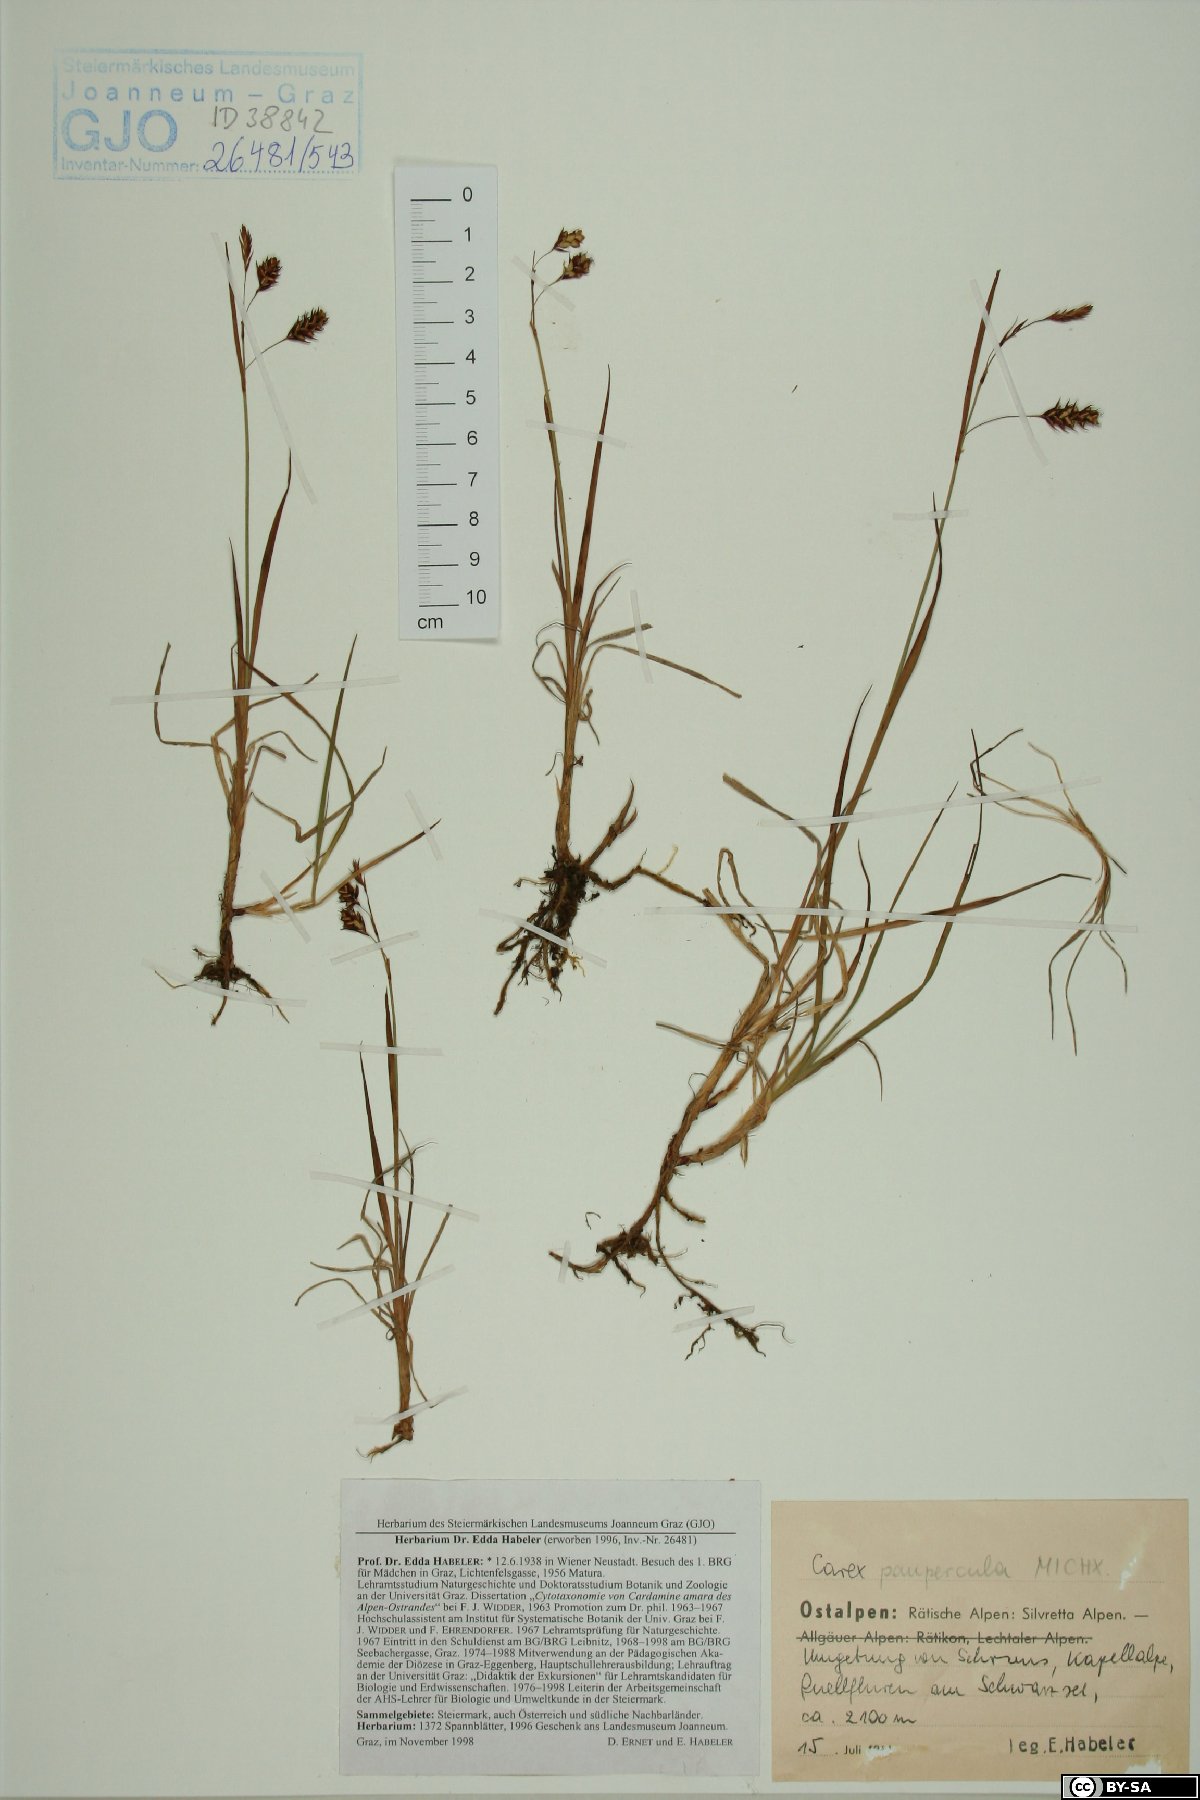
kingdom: Plantae
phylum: Tracheophyta
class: Liliopsida
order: Poales
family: Cyperaceae
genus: Carex
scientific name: Carex magellanica
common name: Bog sedge
